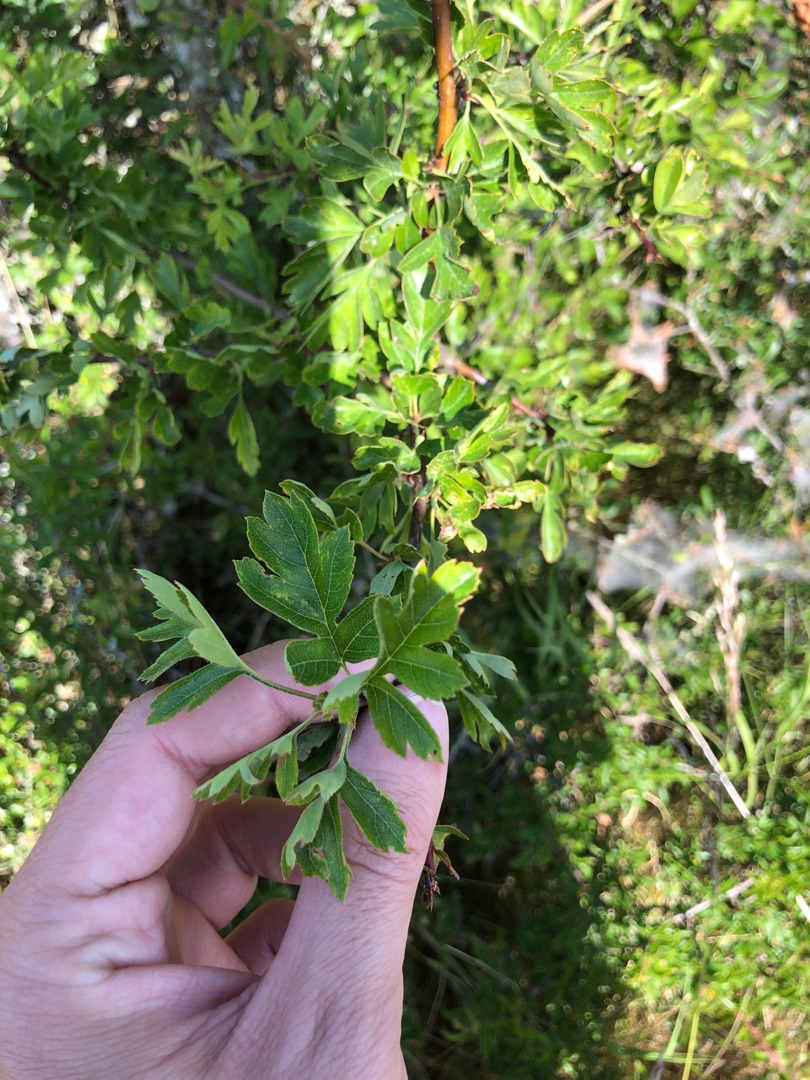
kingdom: Plantae
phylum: Tracheophyta
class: Magnoliopsida
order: Rosales
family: Rosaceae
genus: Crataegus
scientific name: Crataegus monogyna
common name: Engriflet hvidtjørn
